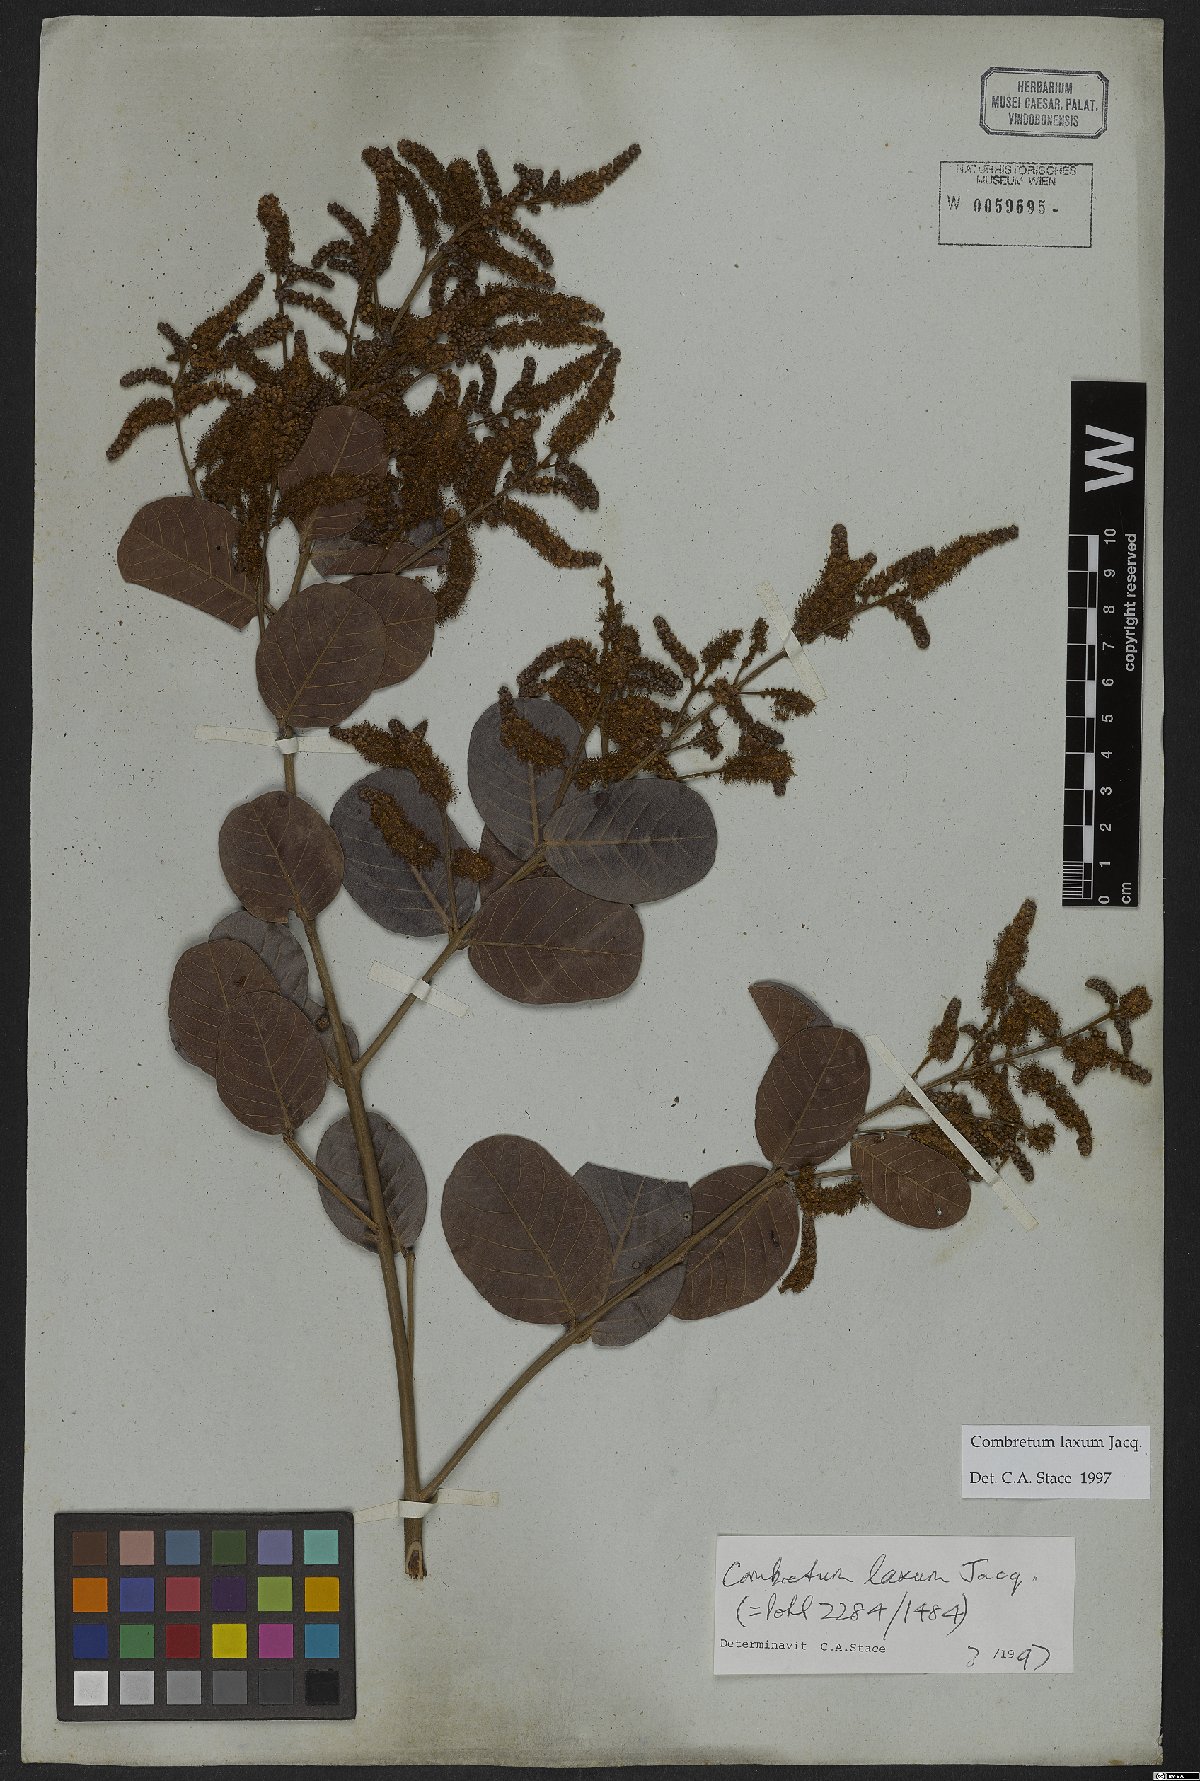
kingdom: Plantae
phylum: Tracheophyta
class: Magnoliopsida
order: Myrtales
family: Combretaceae
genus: Combretum
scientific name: Combretum laxum
